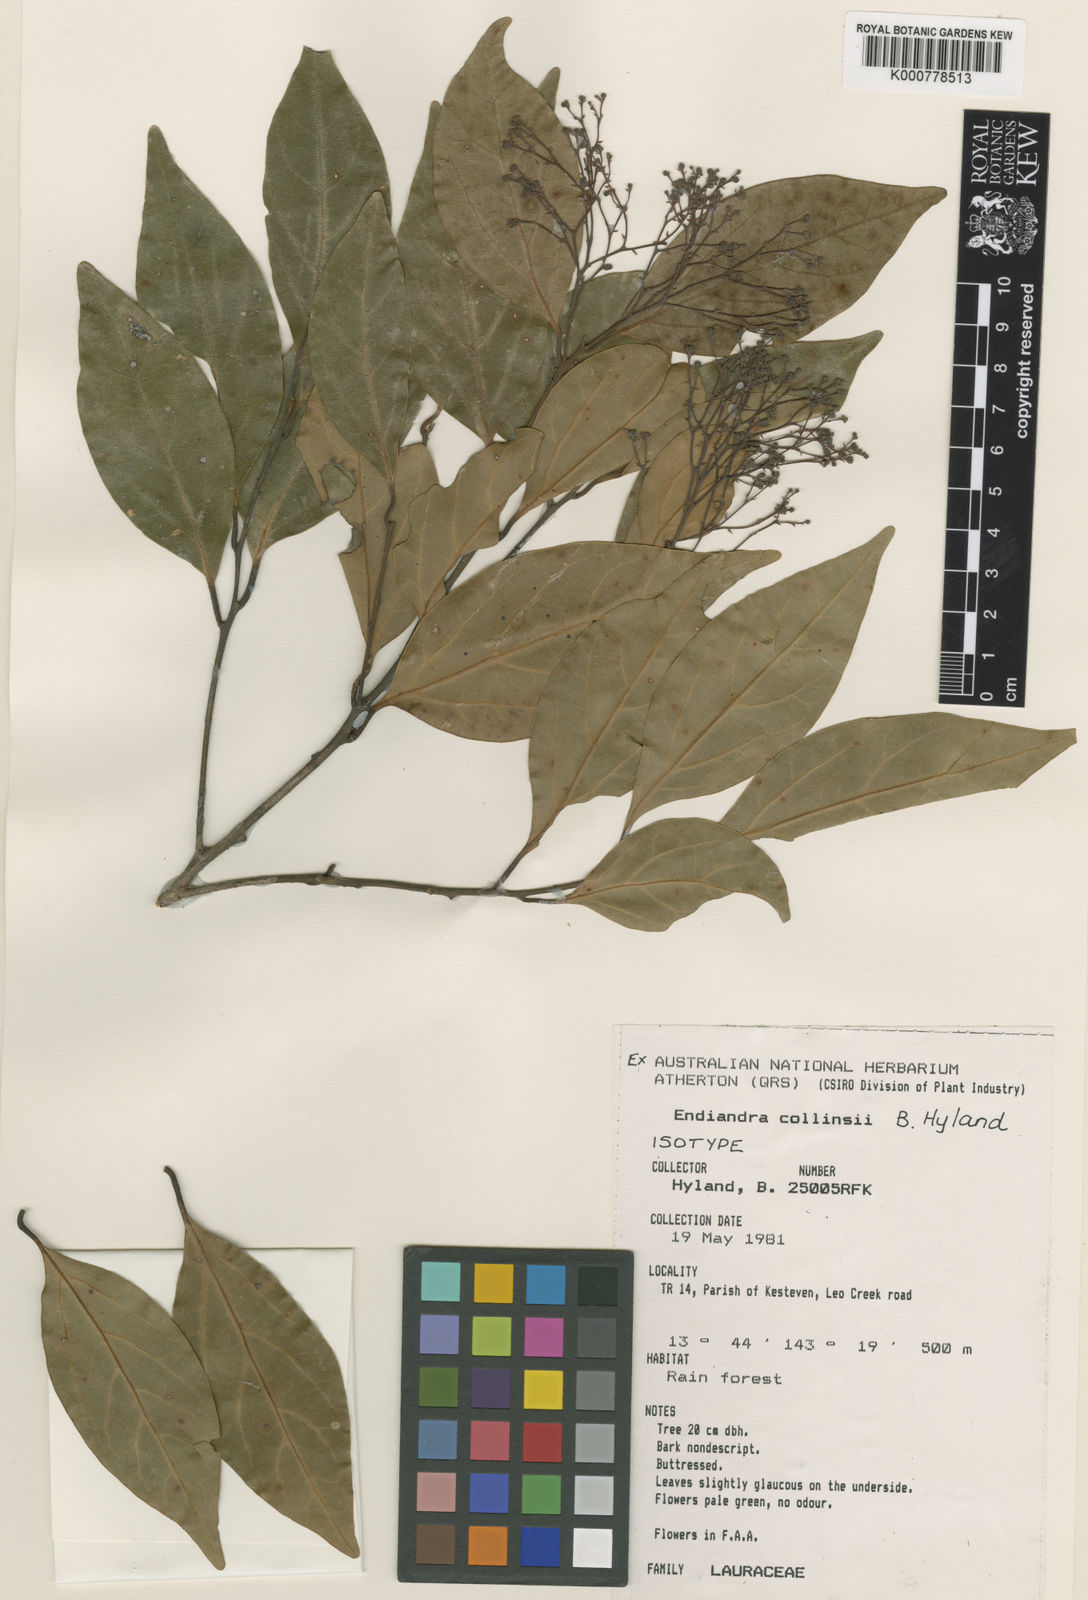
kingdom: Plantae
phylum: Tracheophyta
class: Magnoliopsida
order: Laurales
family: Lauraceae
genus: Endiandra
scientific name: Endiandra collinsii
